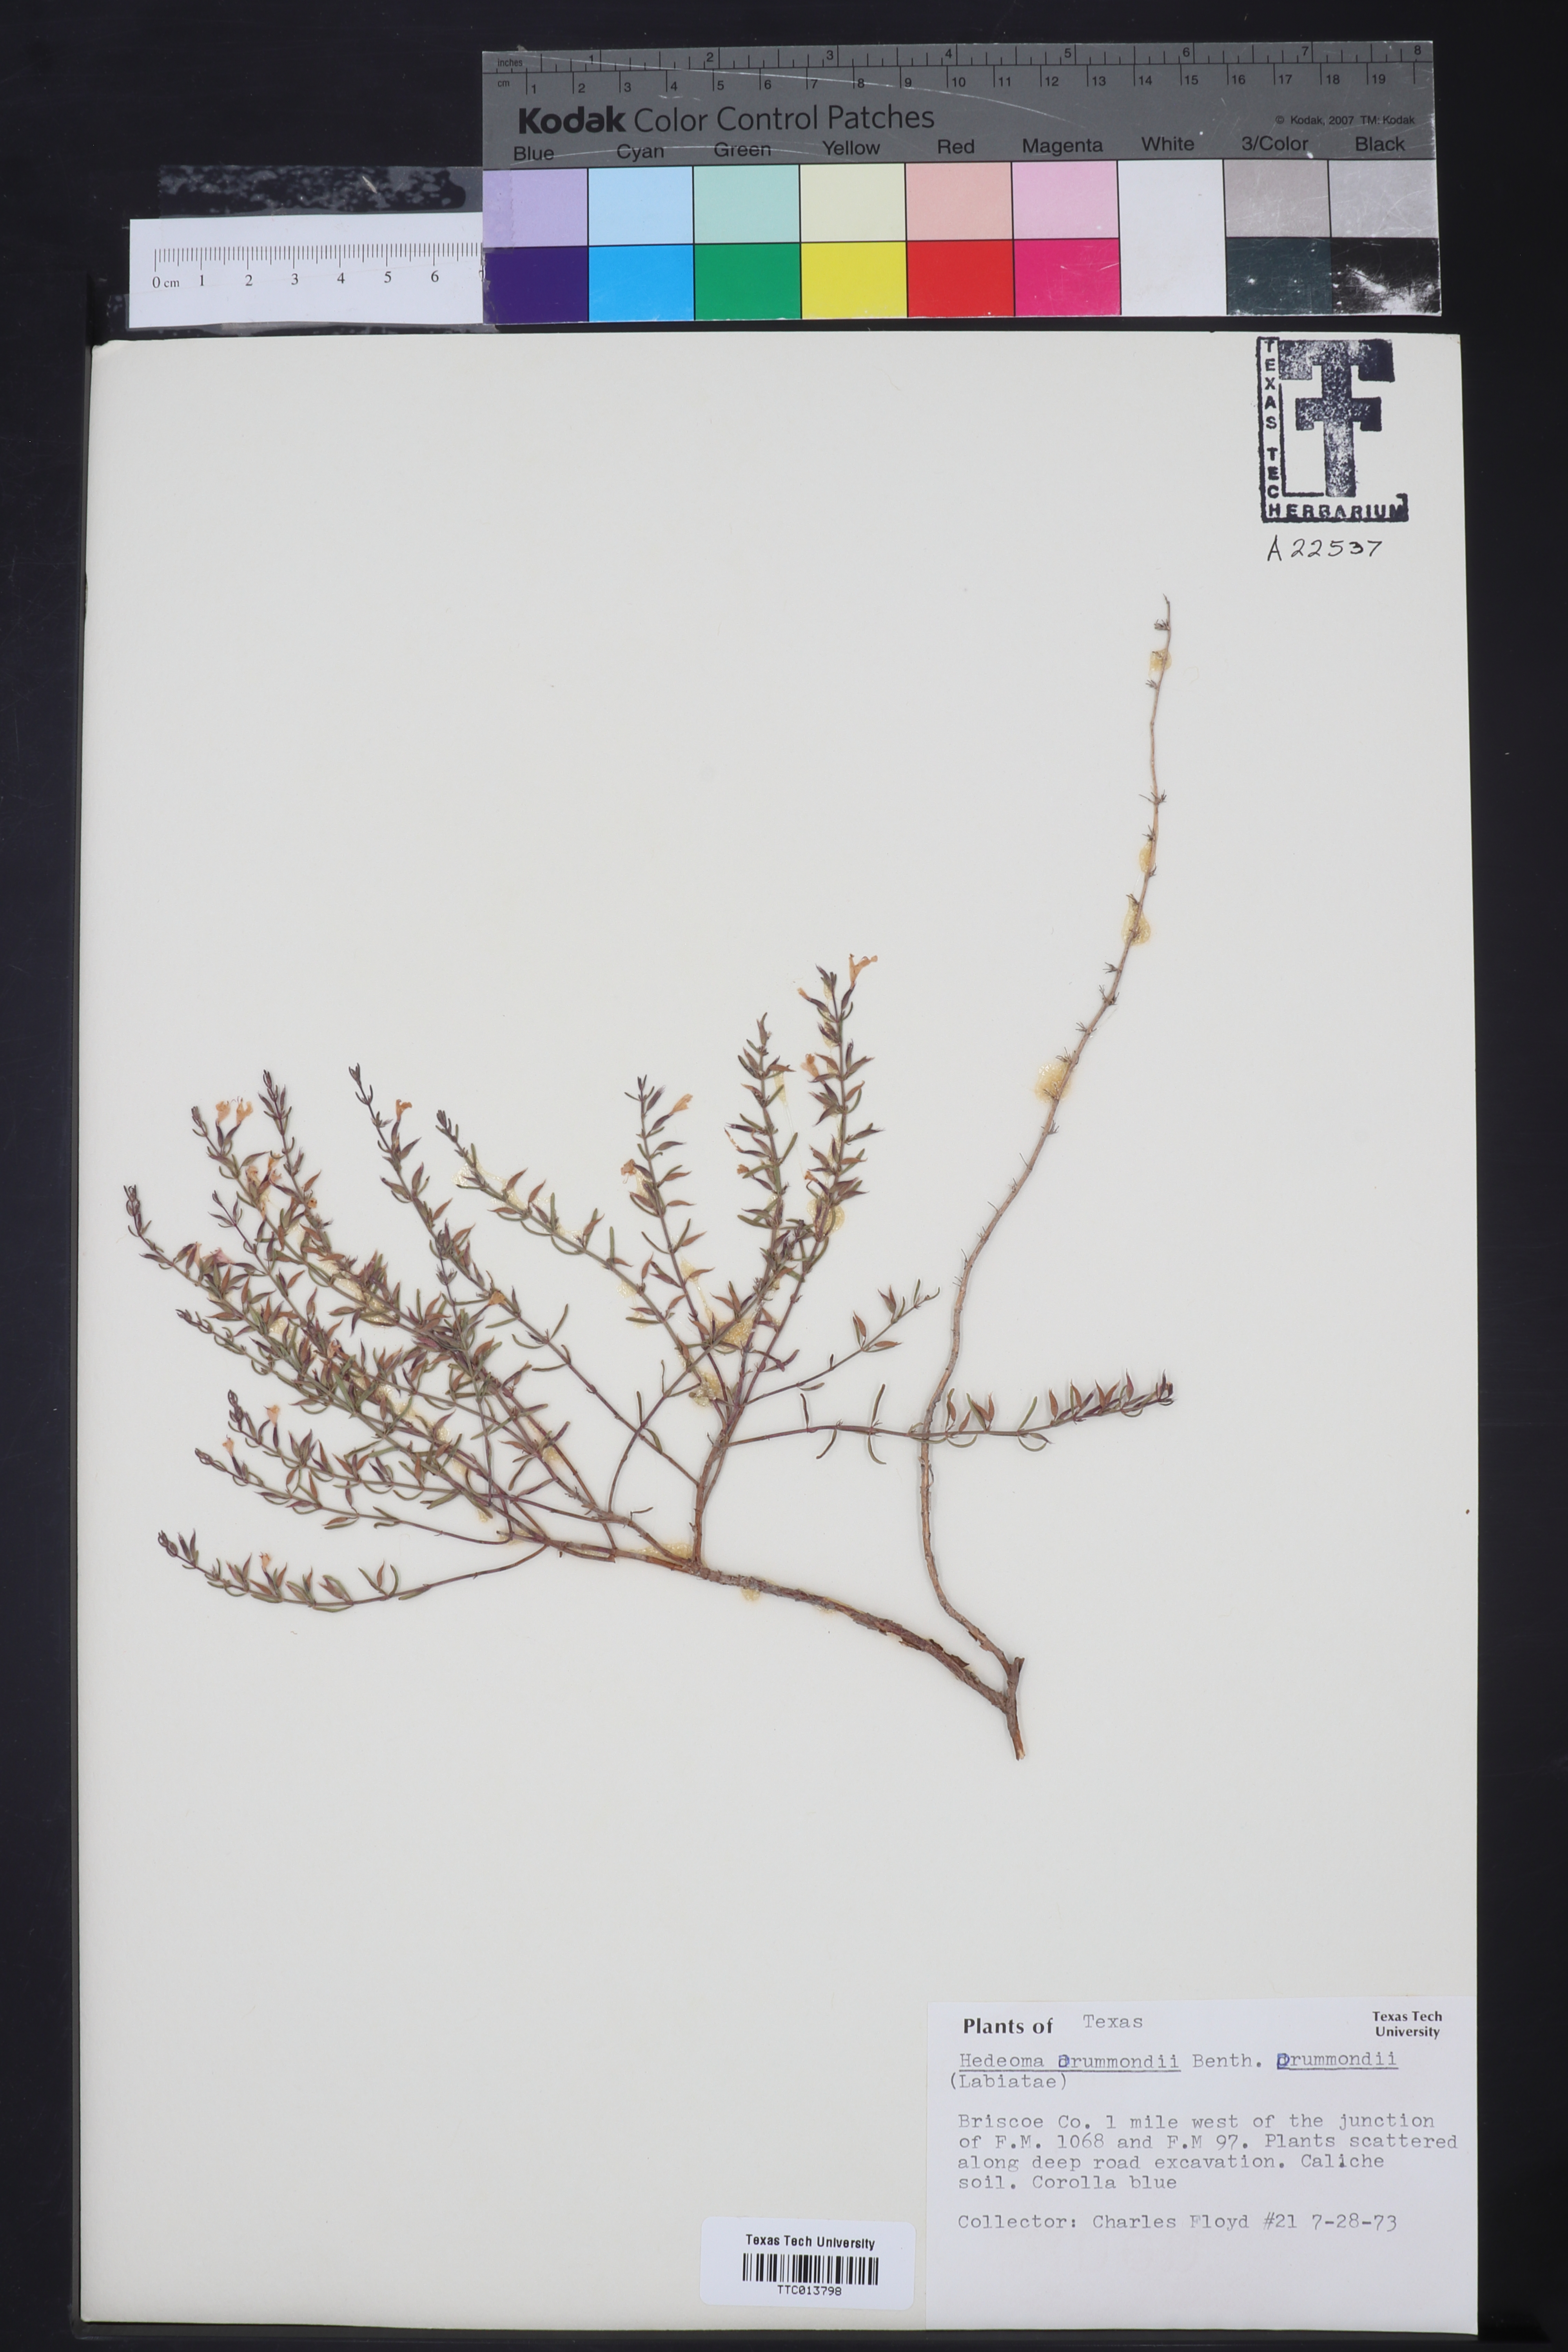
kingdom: Plantae
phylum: Tracheophyta
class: Magnoliopsida
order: Lamiales
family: Lamiaceae
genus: Hedeoma
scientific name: Hedeoma drummondii
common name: New mexico pennyroyal
